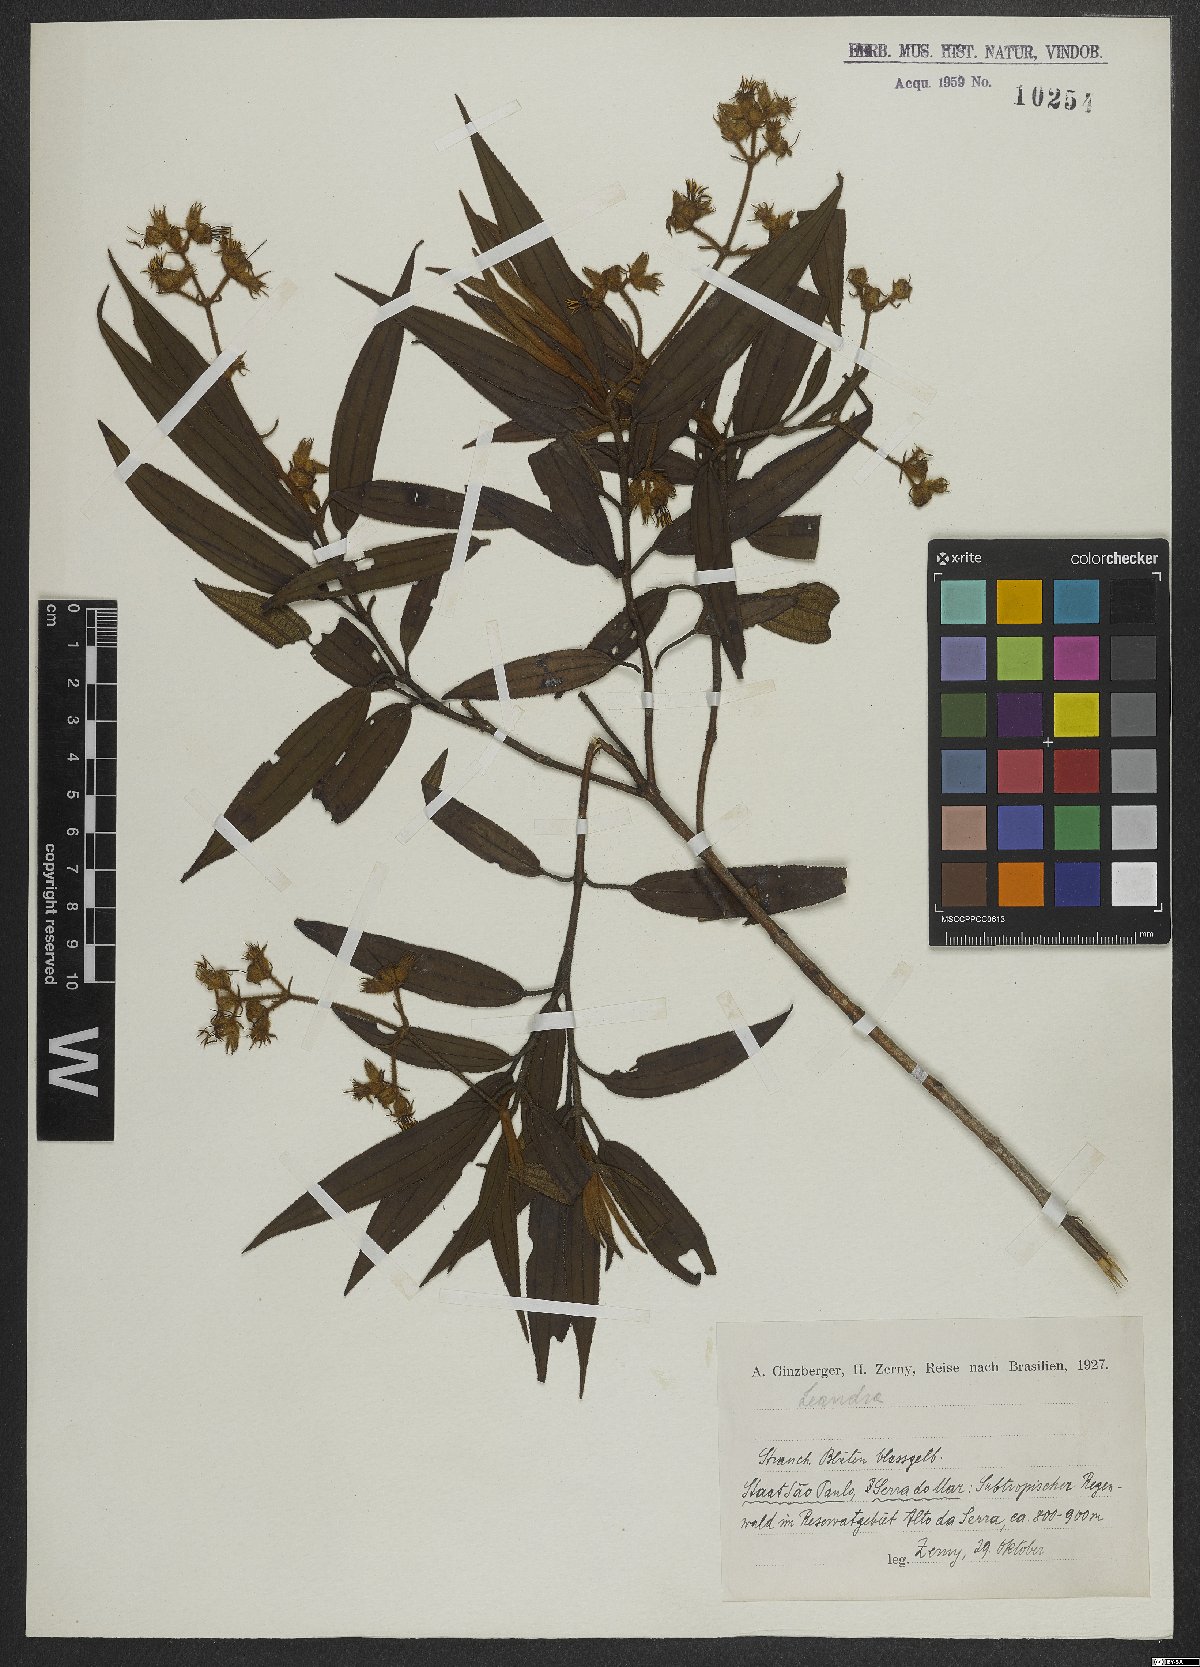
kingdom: Plantae
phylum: Tracheophyta
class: Magnoliopsida
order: Myrtales
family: Melastomataceae
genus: Miconia
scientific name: Miconia
